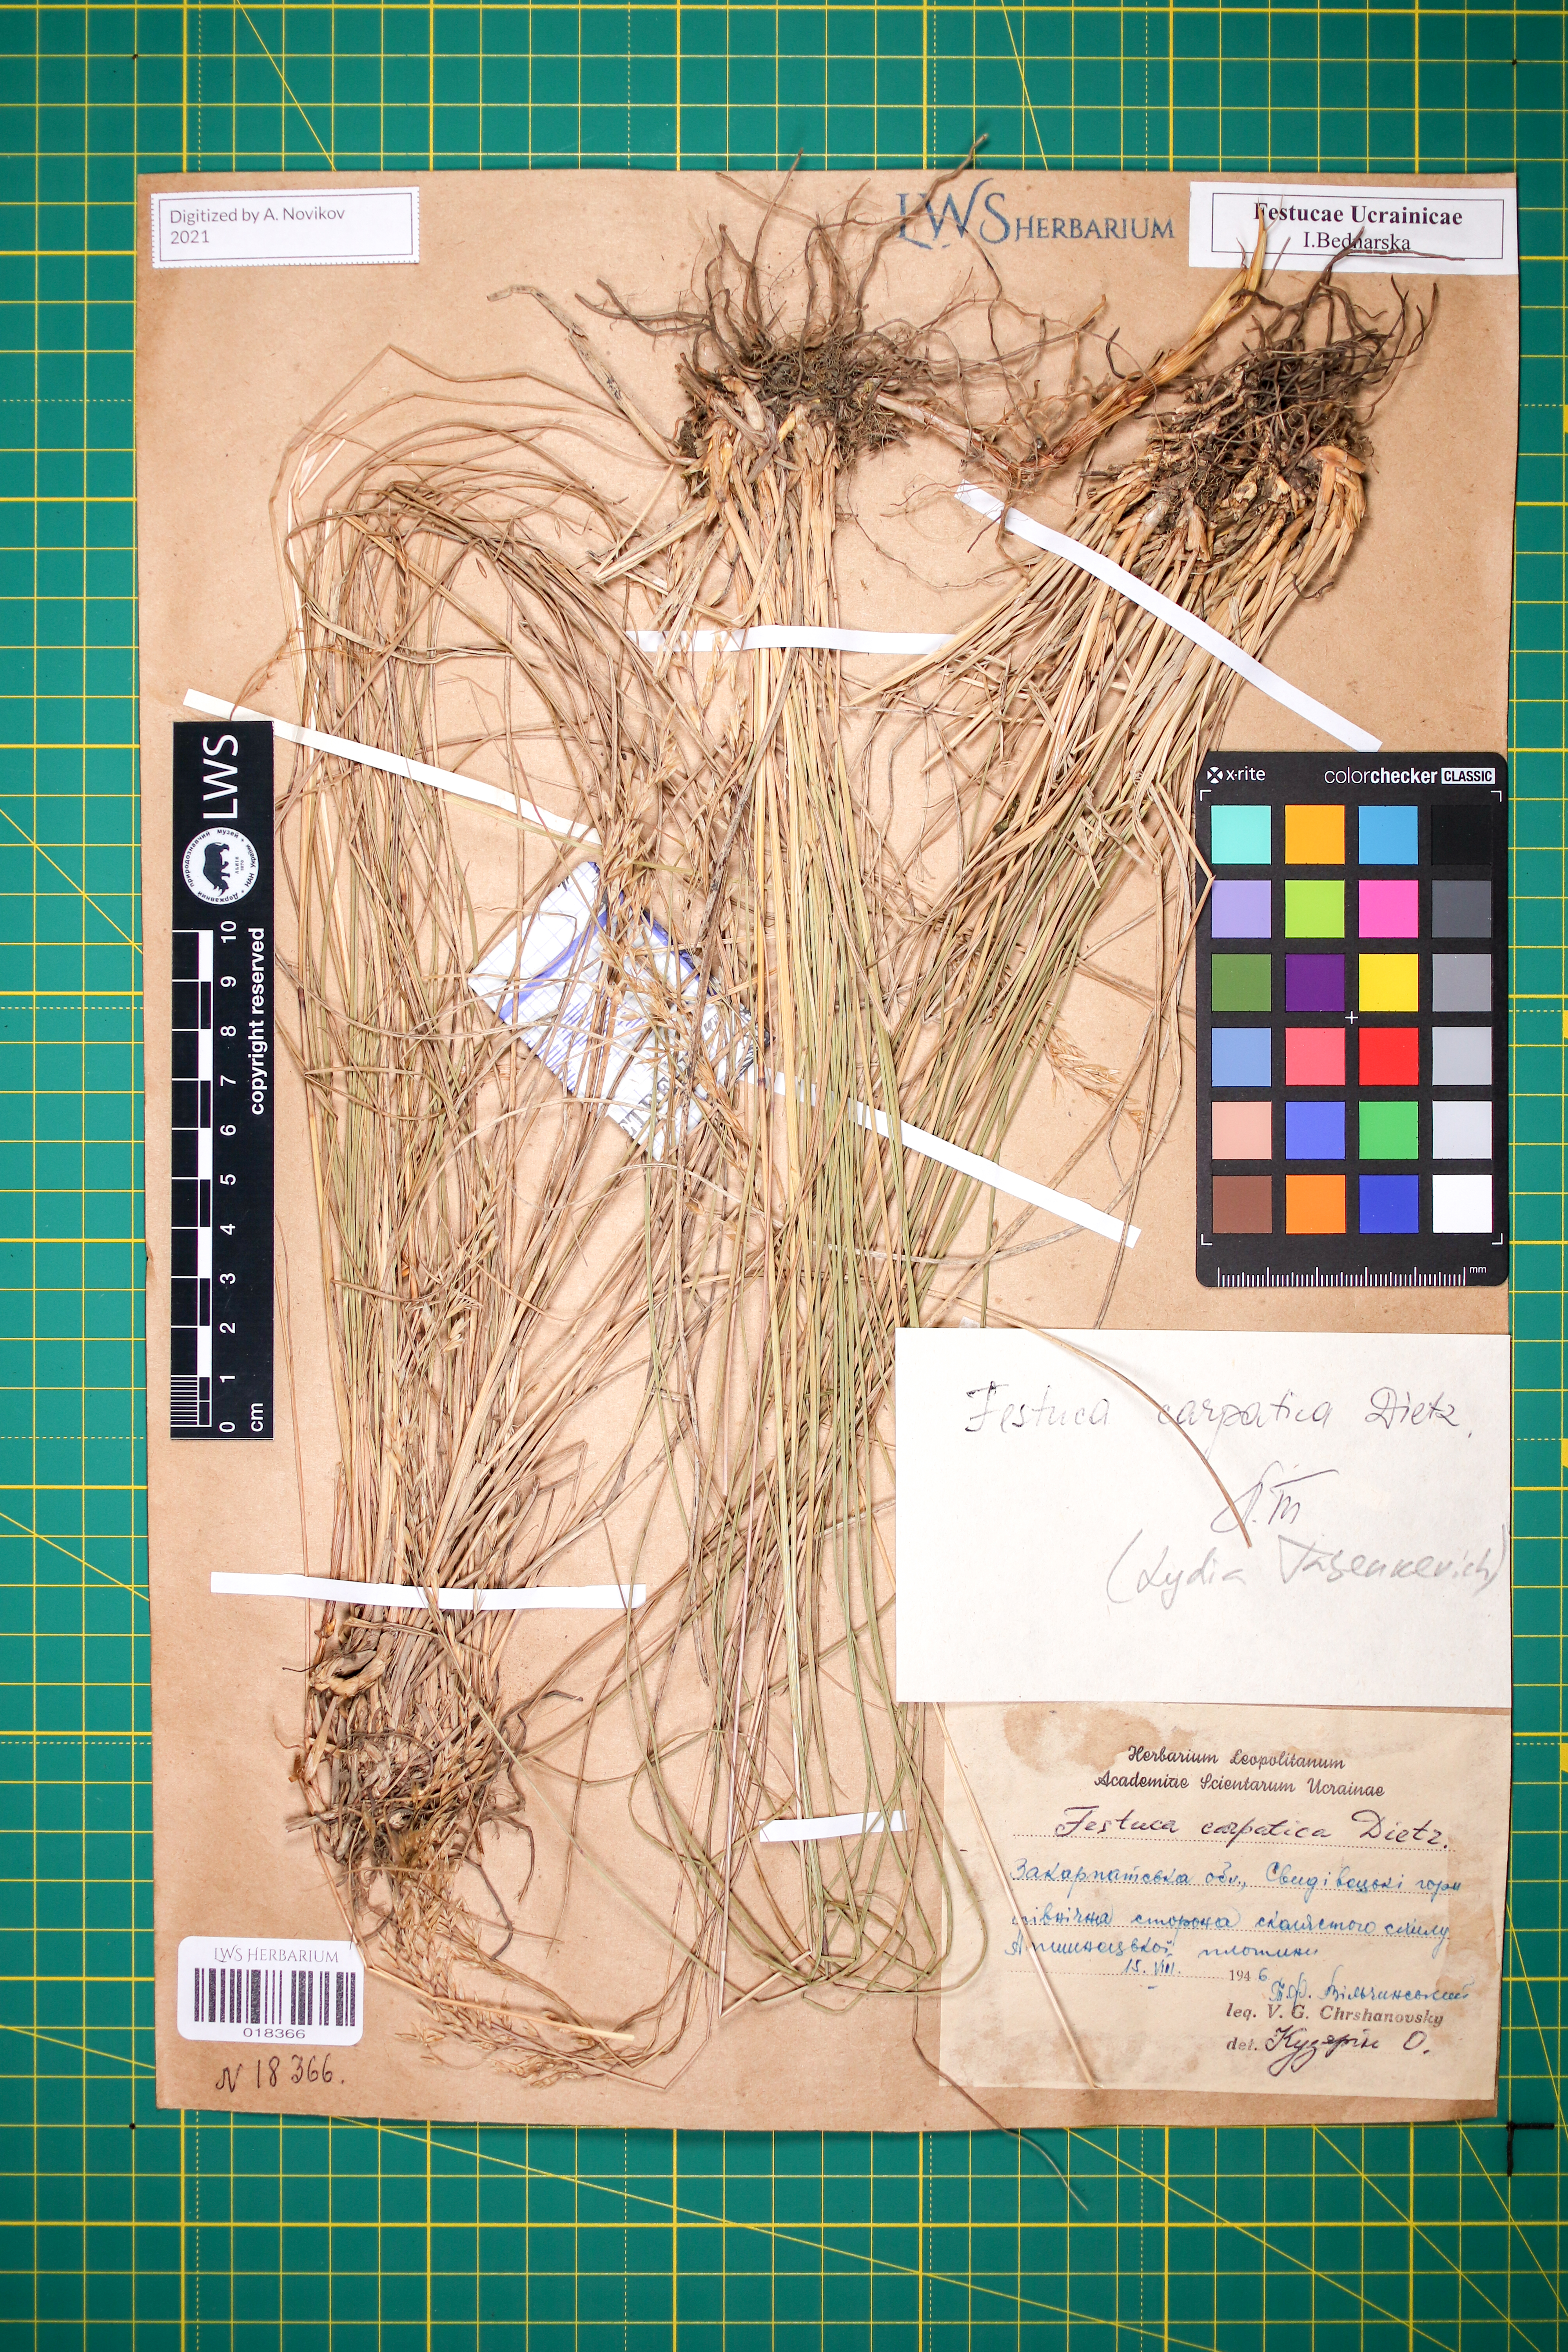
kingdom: Plantae
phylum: Tracheophyta
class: Liliopsida
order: Poales
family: Poaceae
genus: Festuca
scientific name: Festuca carpatica
